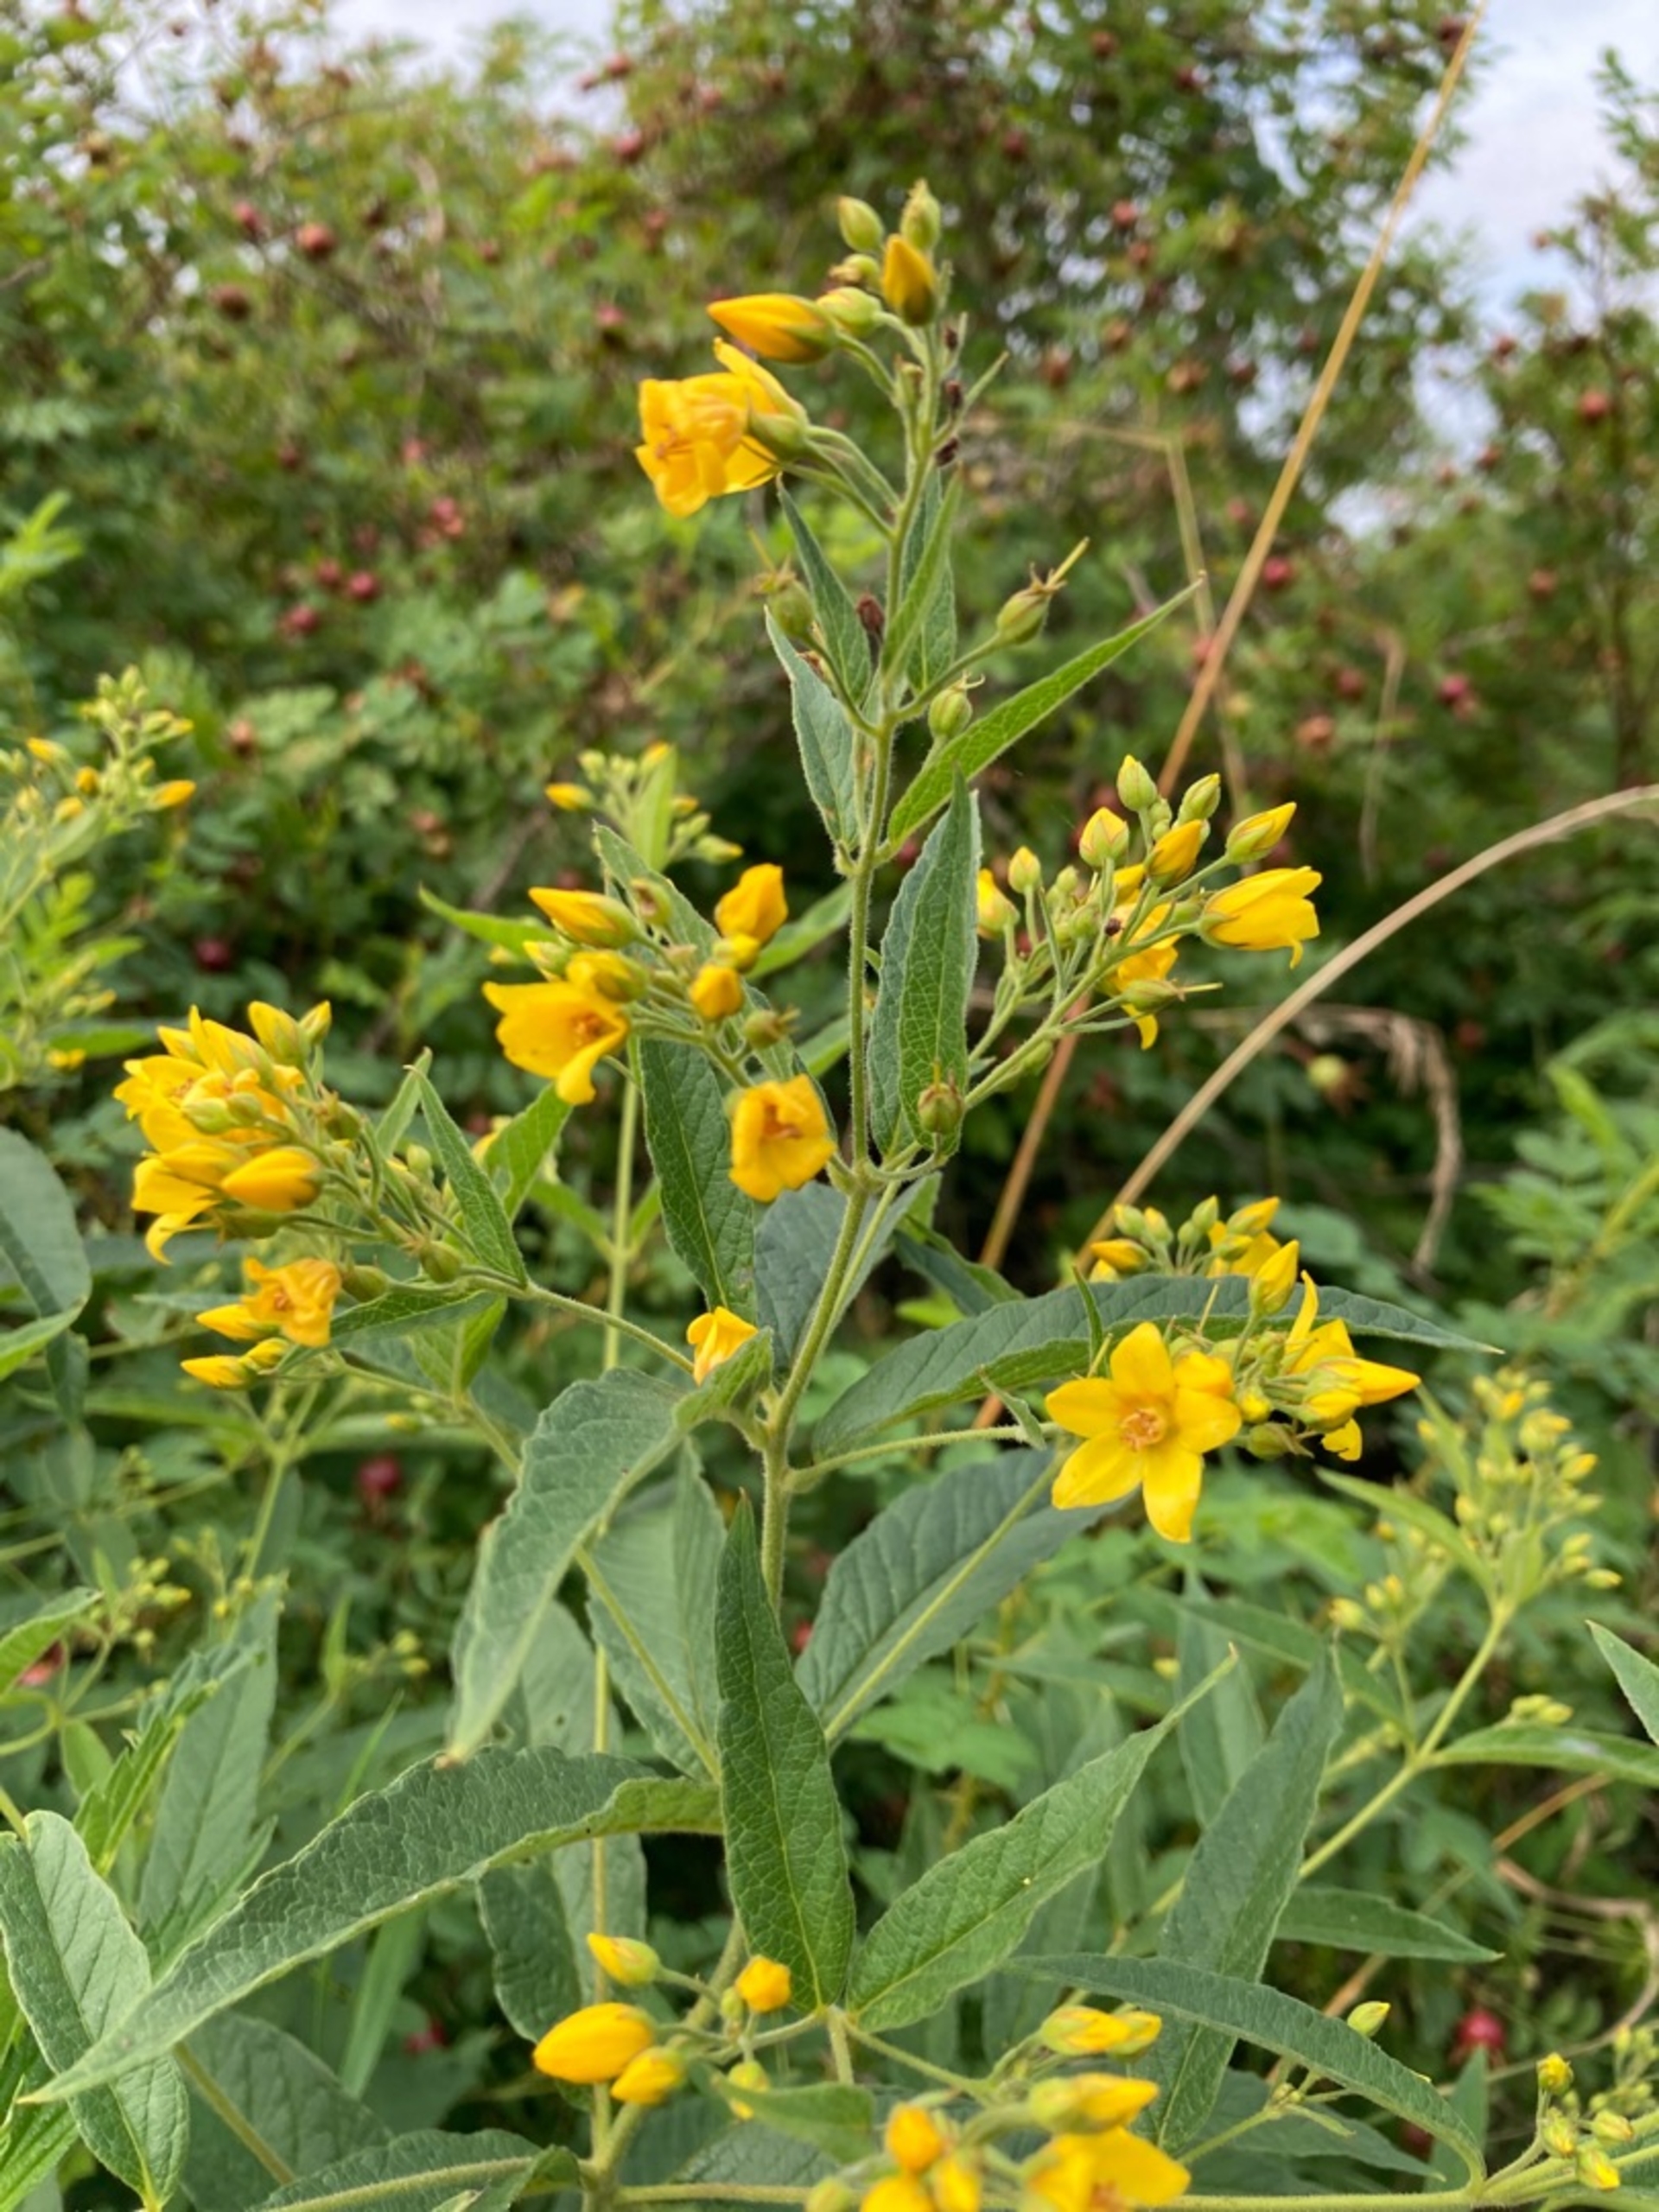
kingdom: Plantae
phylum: Tracheophyta
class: Magnoliopsida
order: Ericales
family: Primulaceae
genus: Lysimachia
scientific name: Lysimachia vulgaris
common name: Almindelig fredløs
